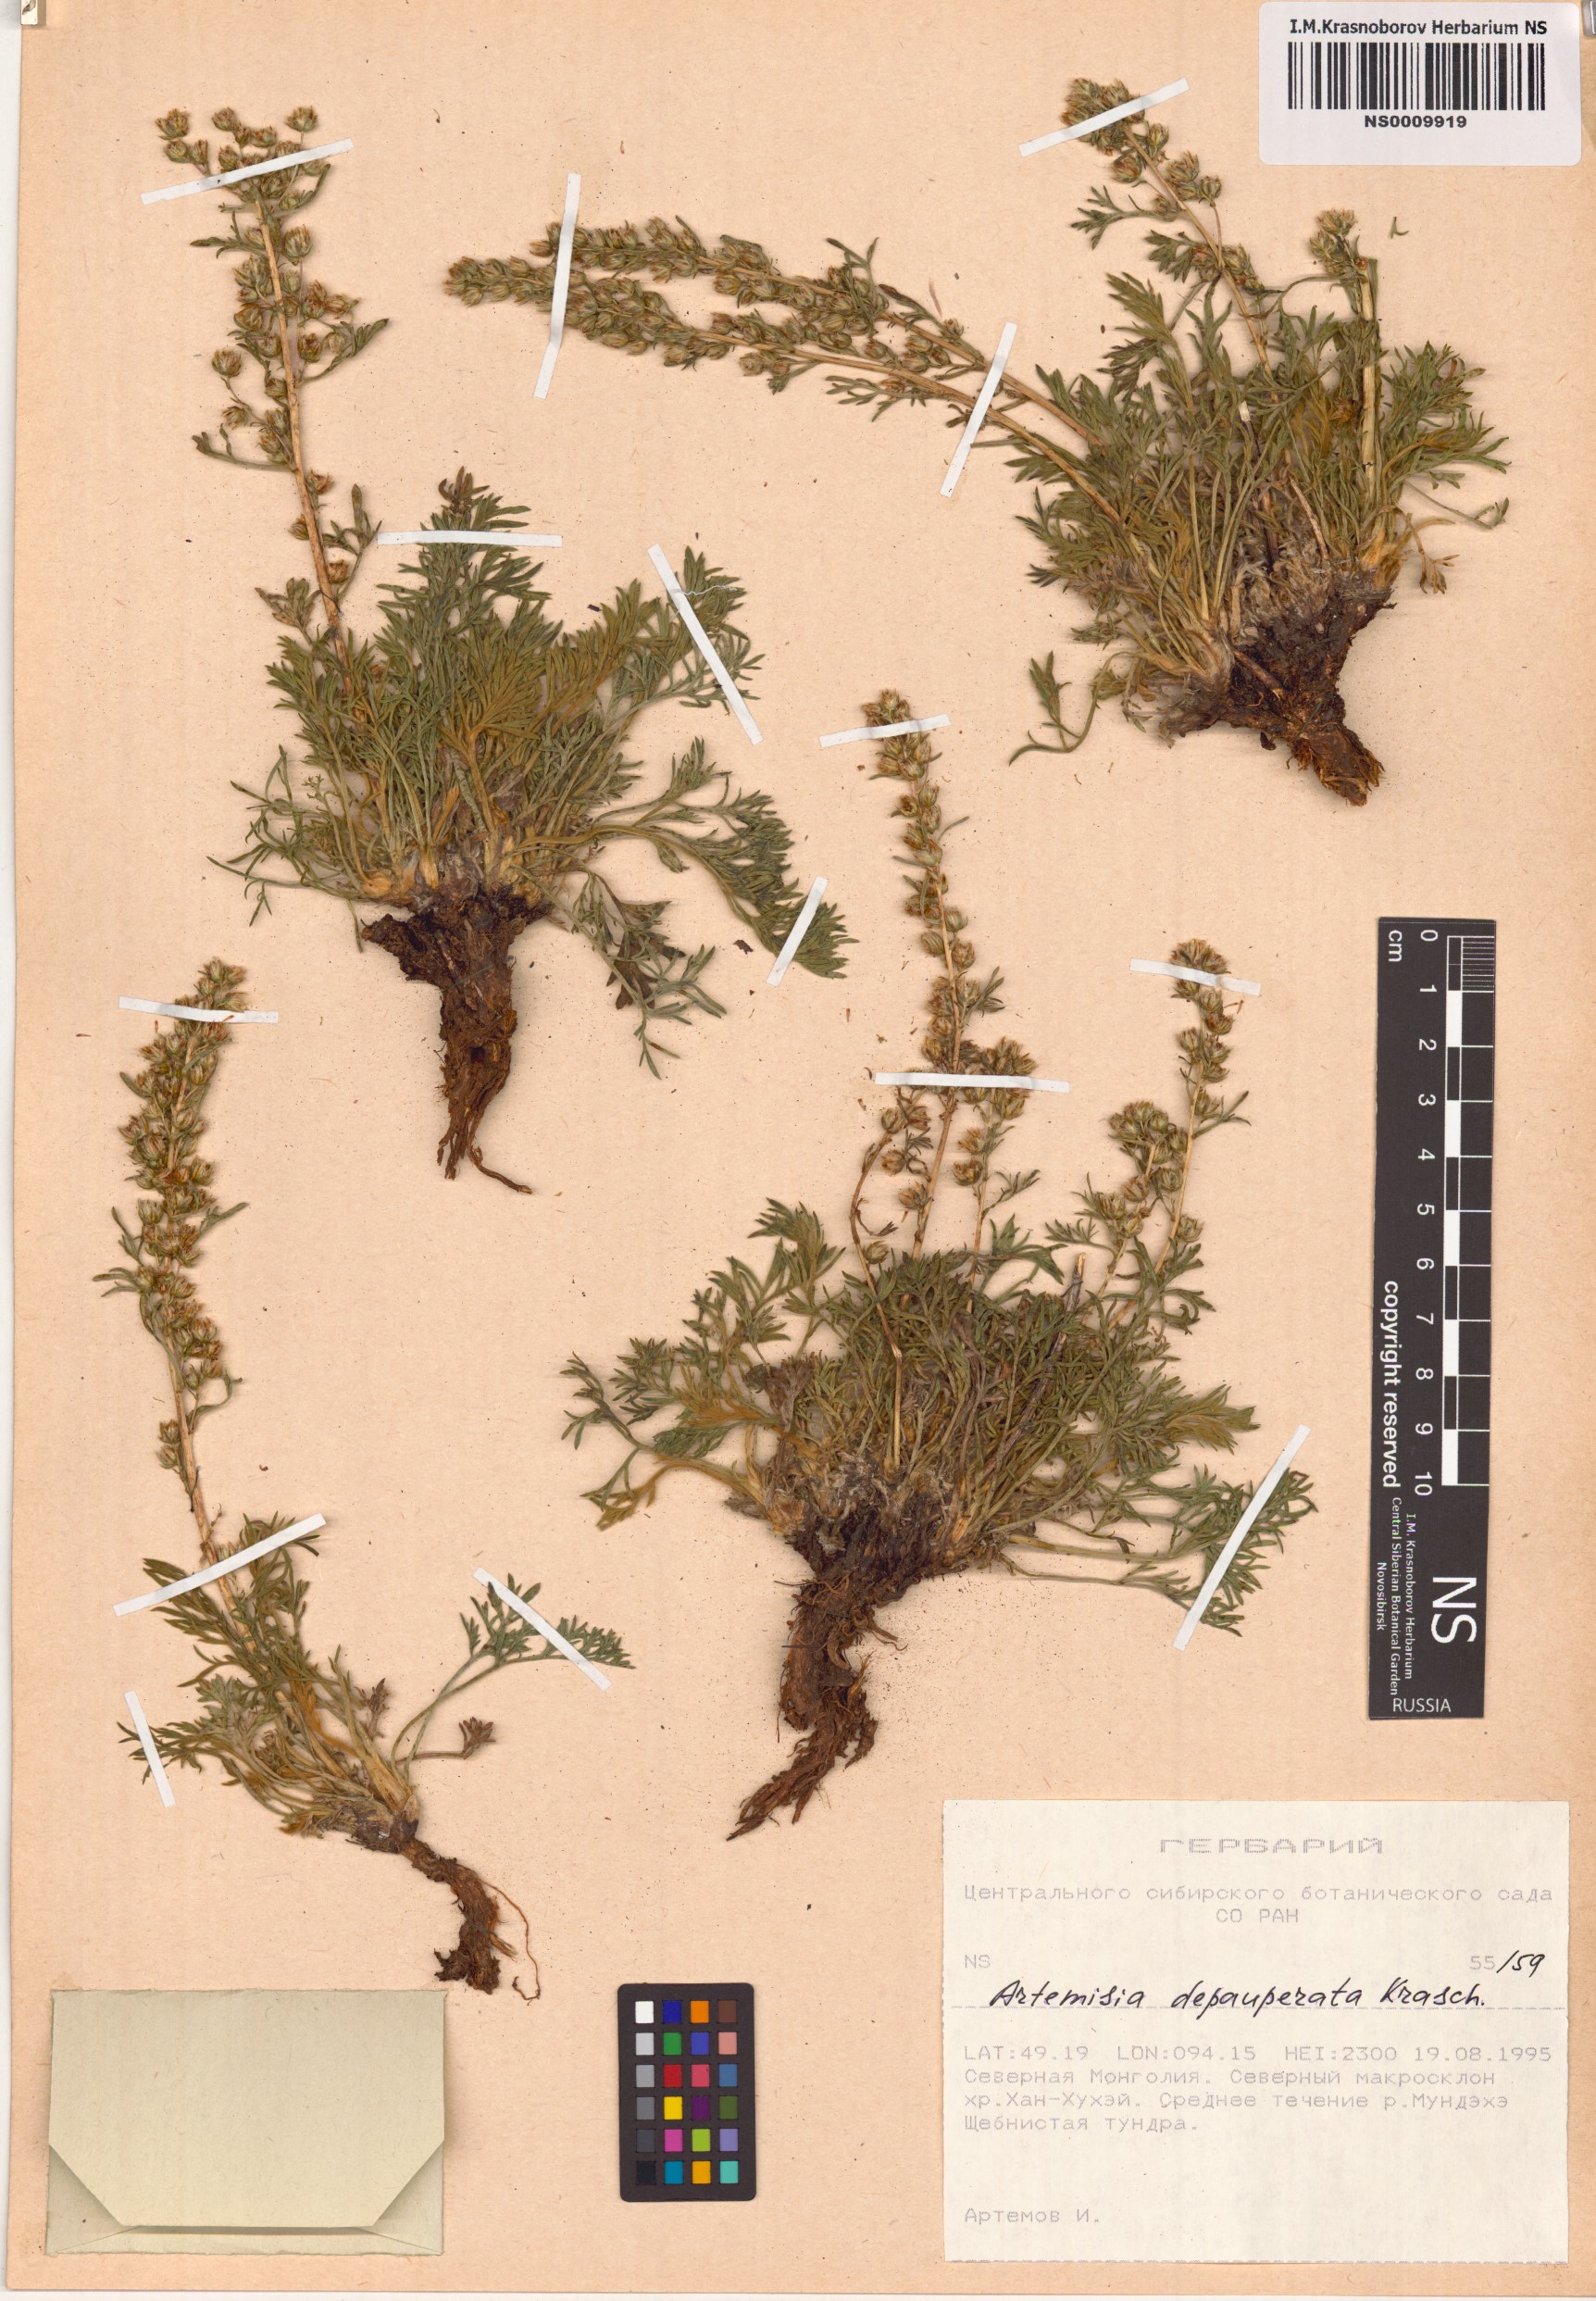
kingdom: Plantae
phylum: Tracheophyta
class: Magnoliopsida
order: Asterales
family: Asteraceae
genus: Artemisia
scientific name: Artemisia pycnorrhiza
